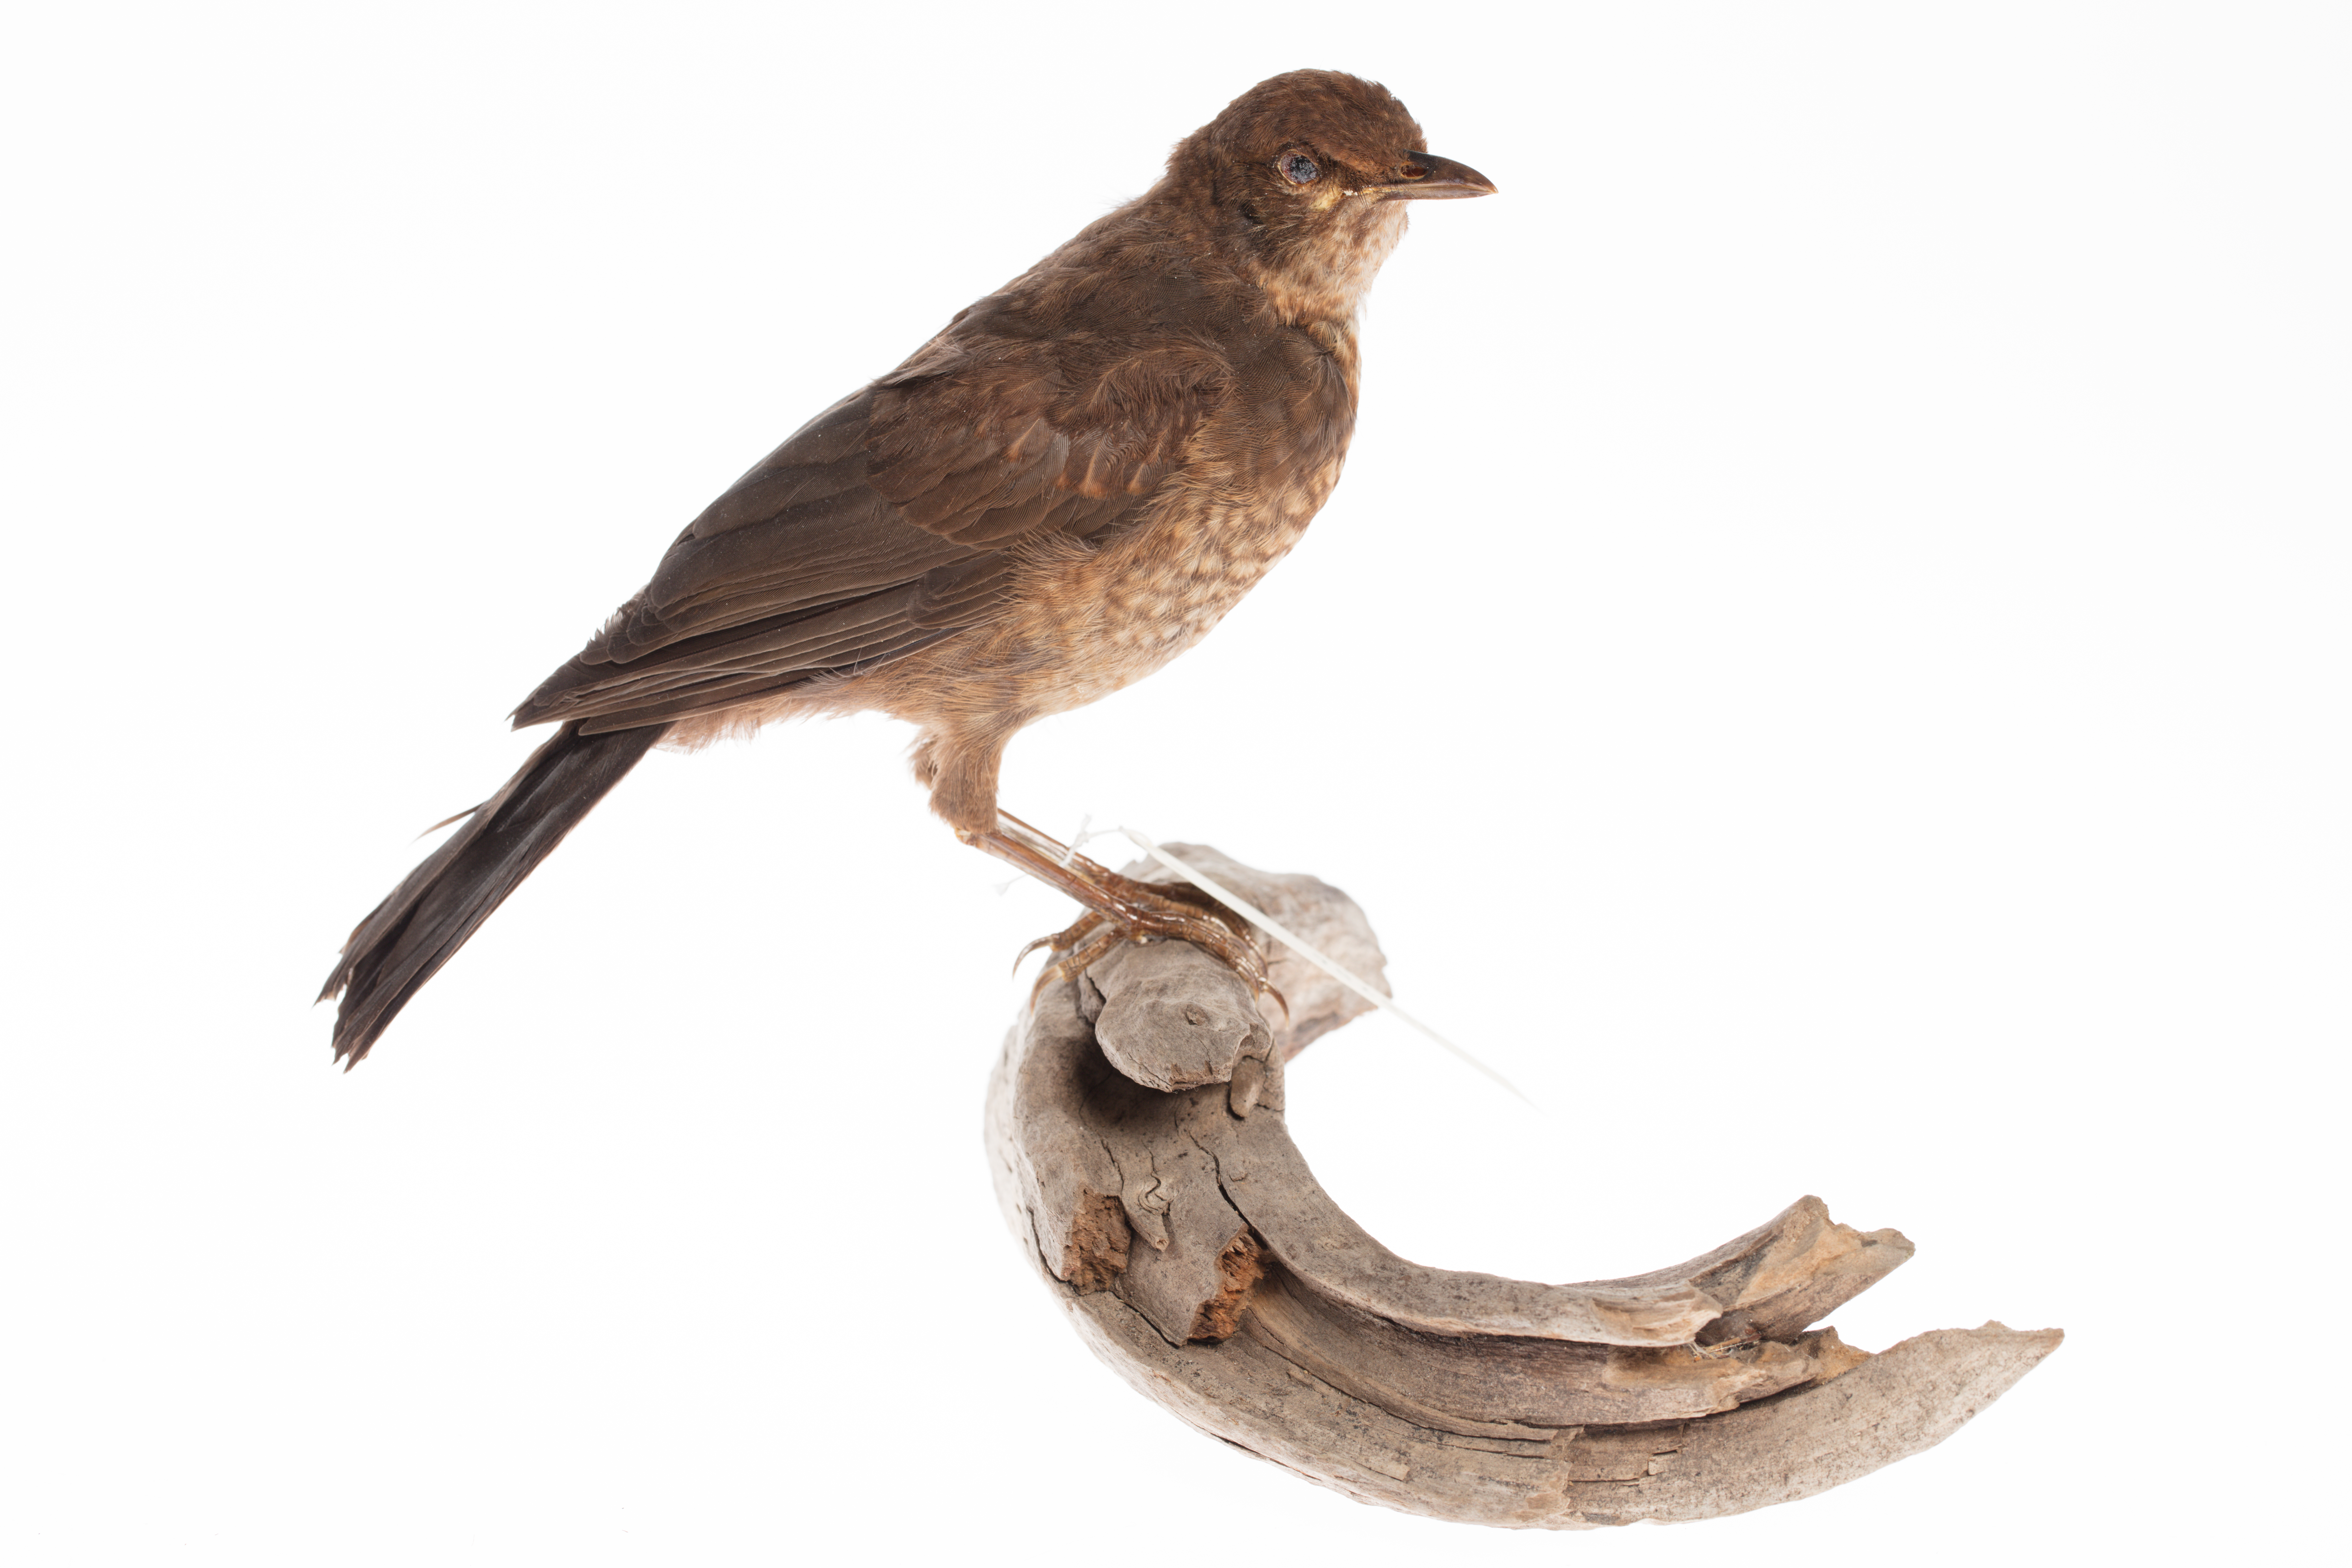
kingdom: Animalia
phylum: Chordata
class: Aves
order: Passeriformes
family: Turdidae
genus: Turdus
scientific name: Turdus merula
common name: Common blackbird
